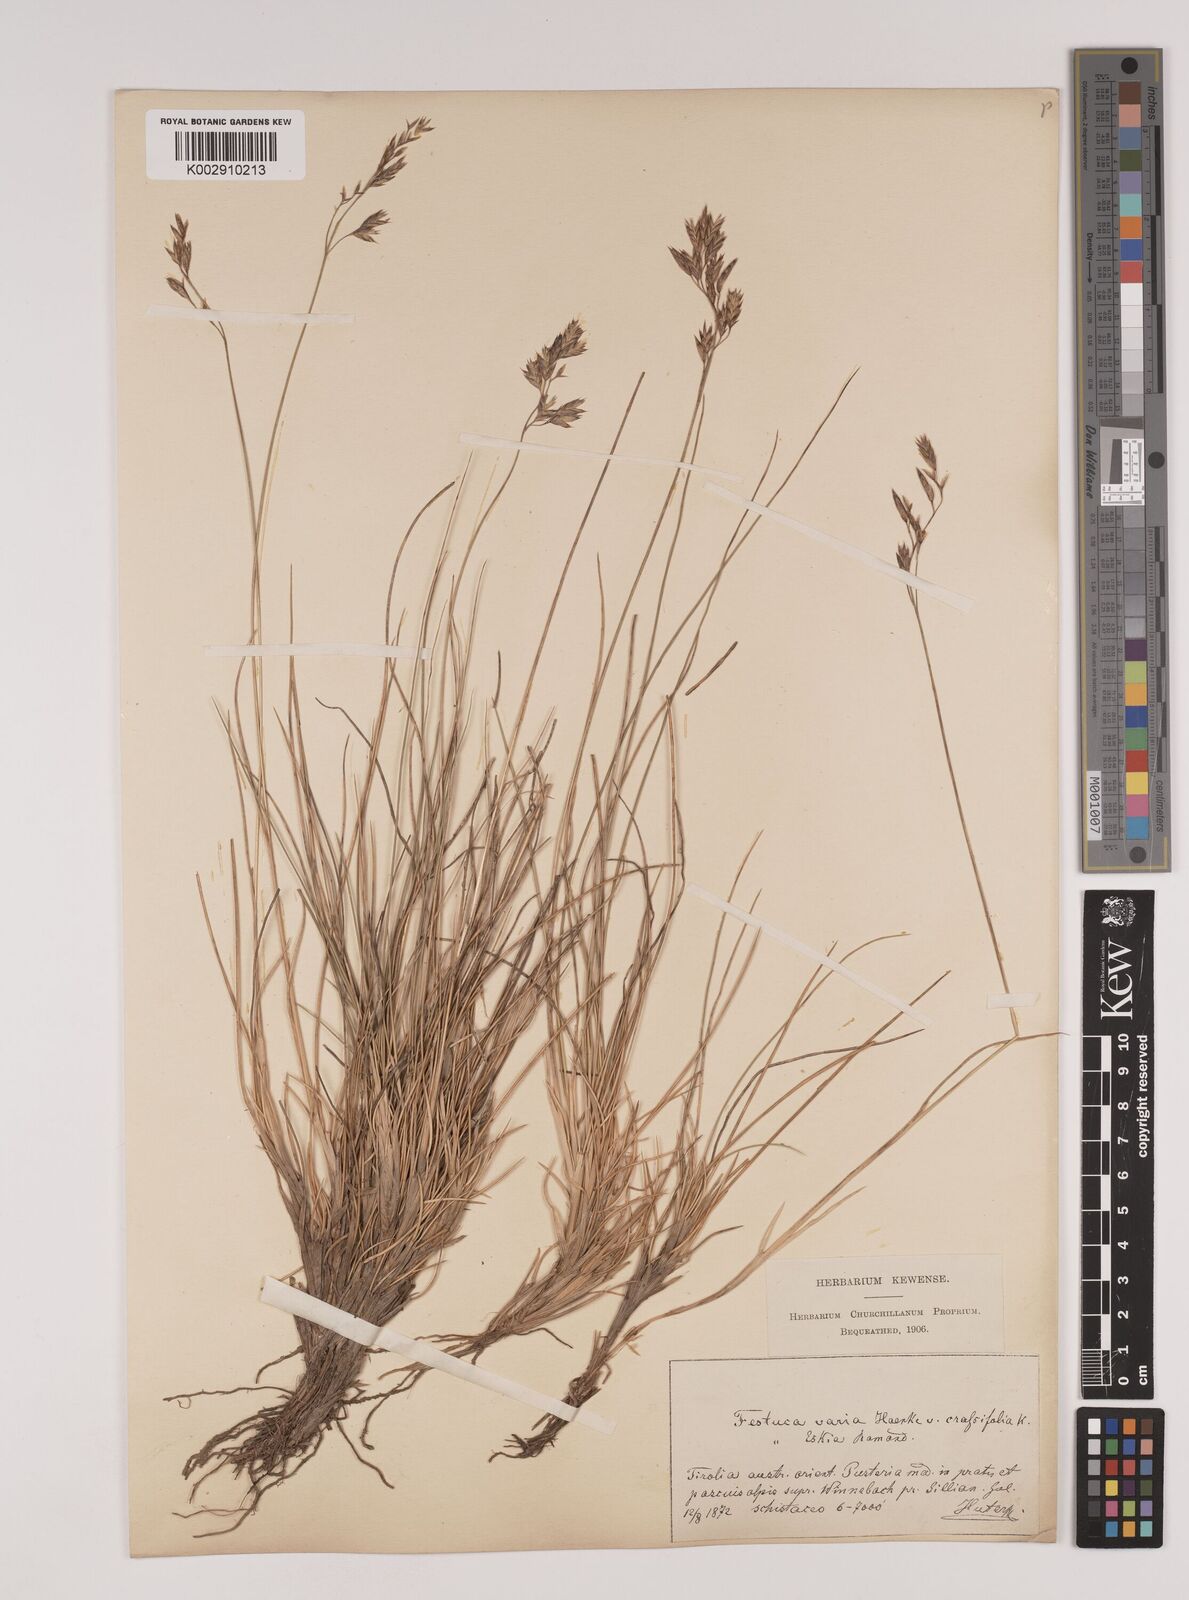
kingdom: Plantae
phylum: Tracheophyta
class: Liliopsida
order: Poales
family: Poaceae
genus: Festuca
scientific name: Festuca varia
